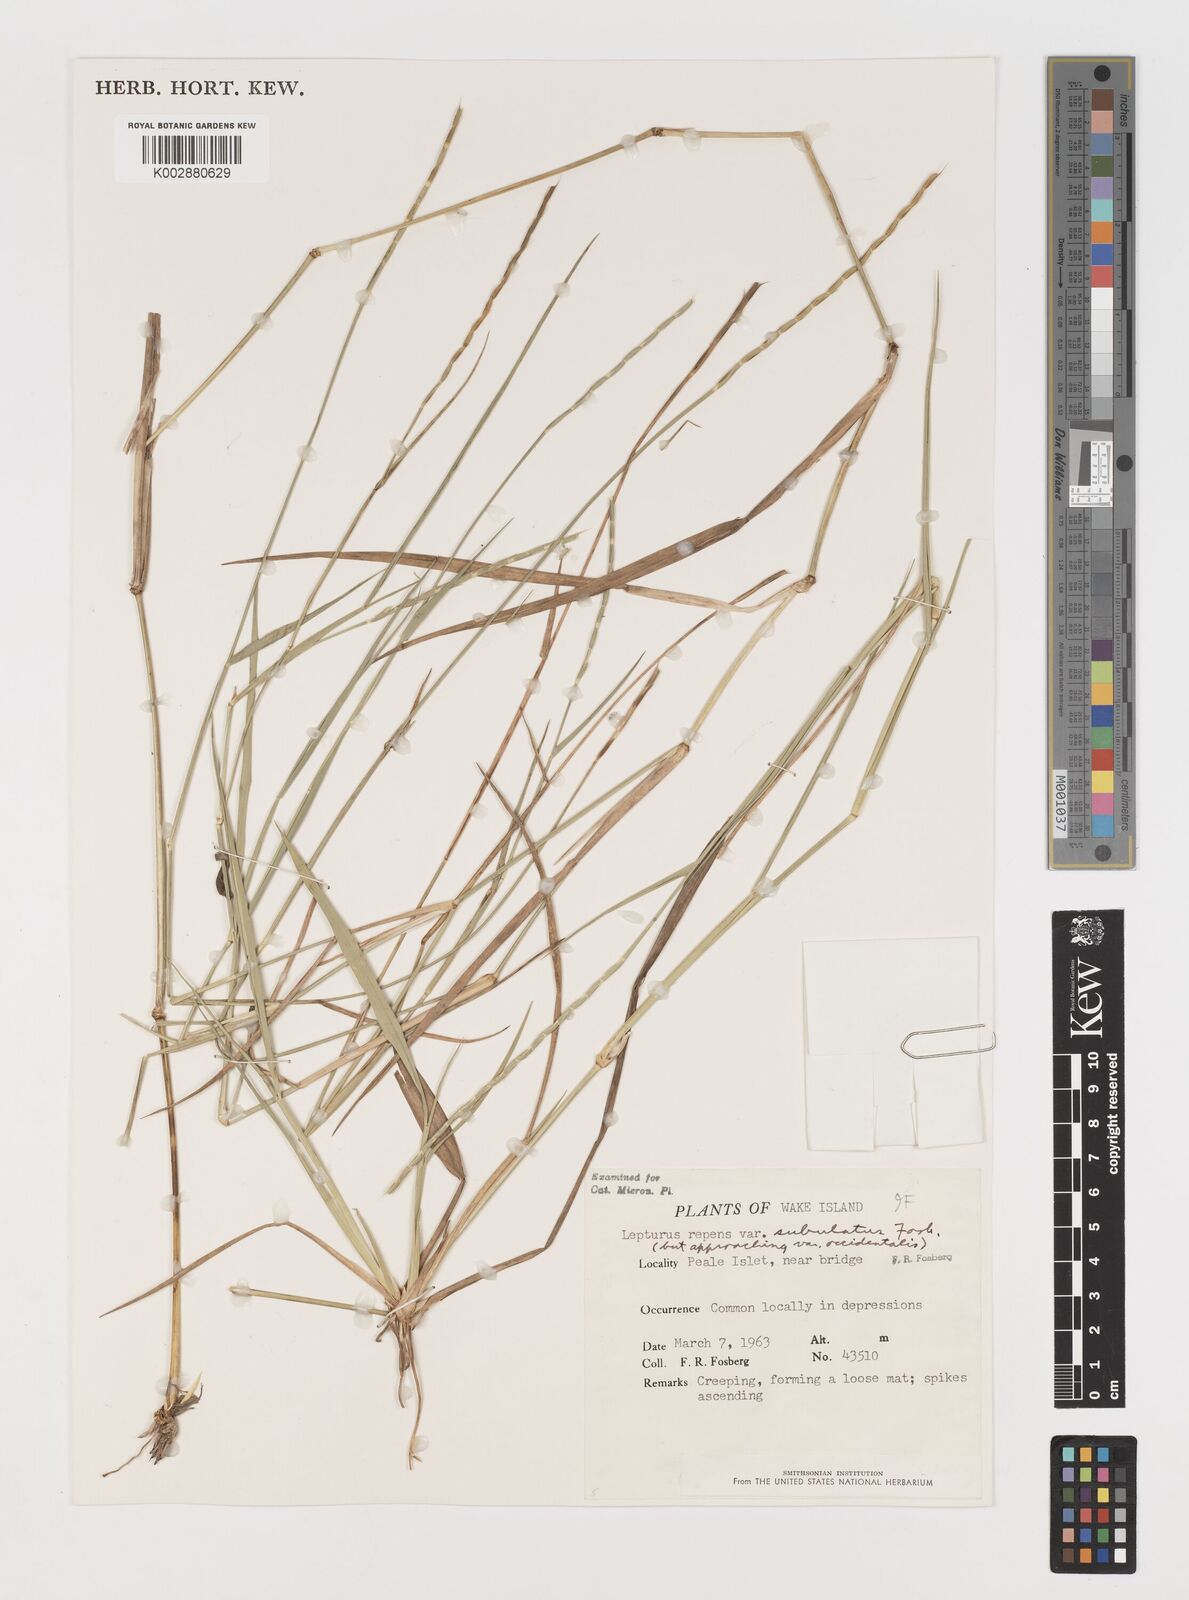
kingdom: Plantae
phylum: Tracheophyta
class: Liliopsida
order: Poales
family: Poaceae
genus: Lepturus
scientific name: Lepturus repens
